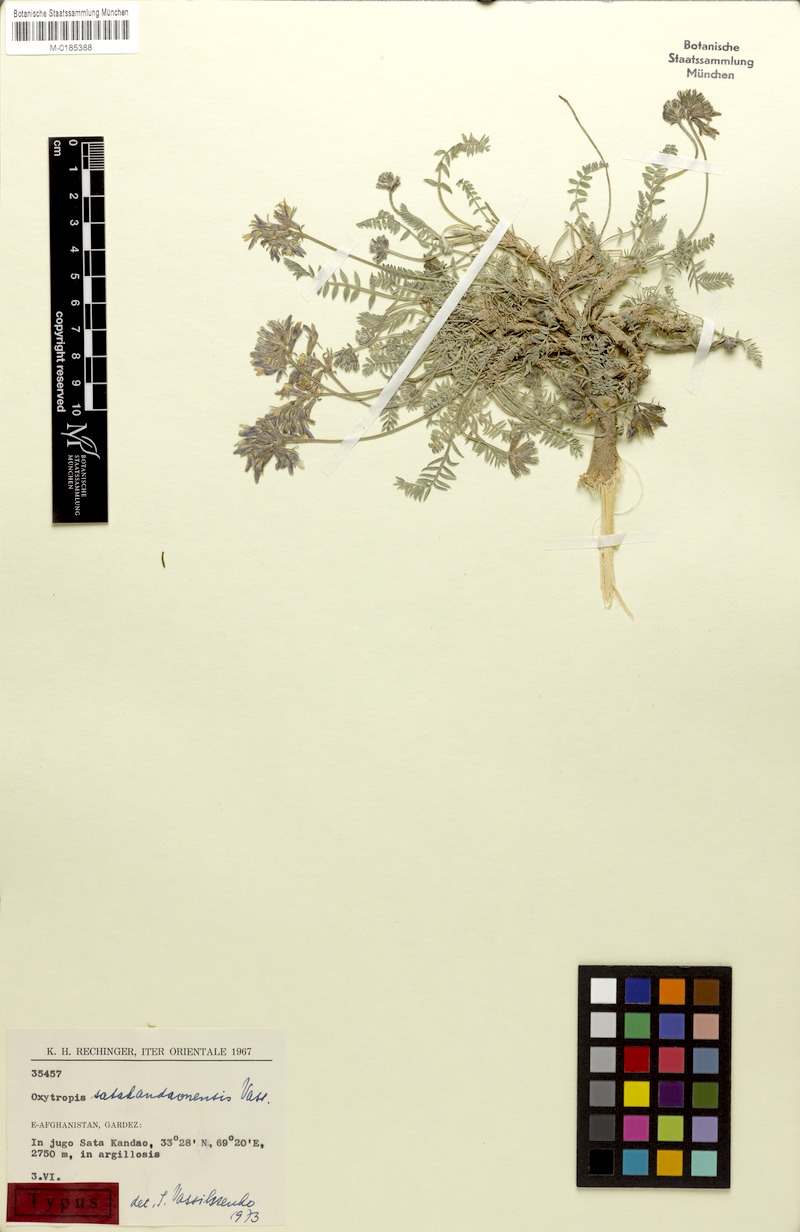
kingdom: Plantae
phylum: Tracheophyta
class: Magnoliopsida
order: Fabales
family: Fabaceae
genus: Oxytropis
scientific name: Oxytropis griffithii
